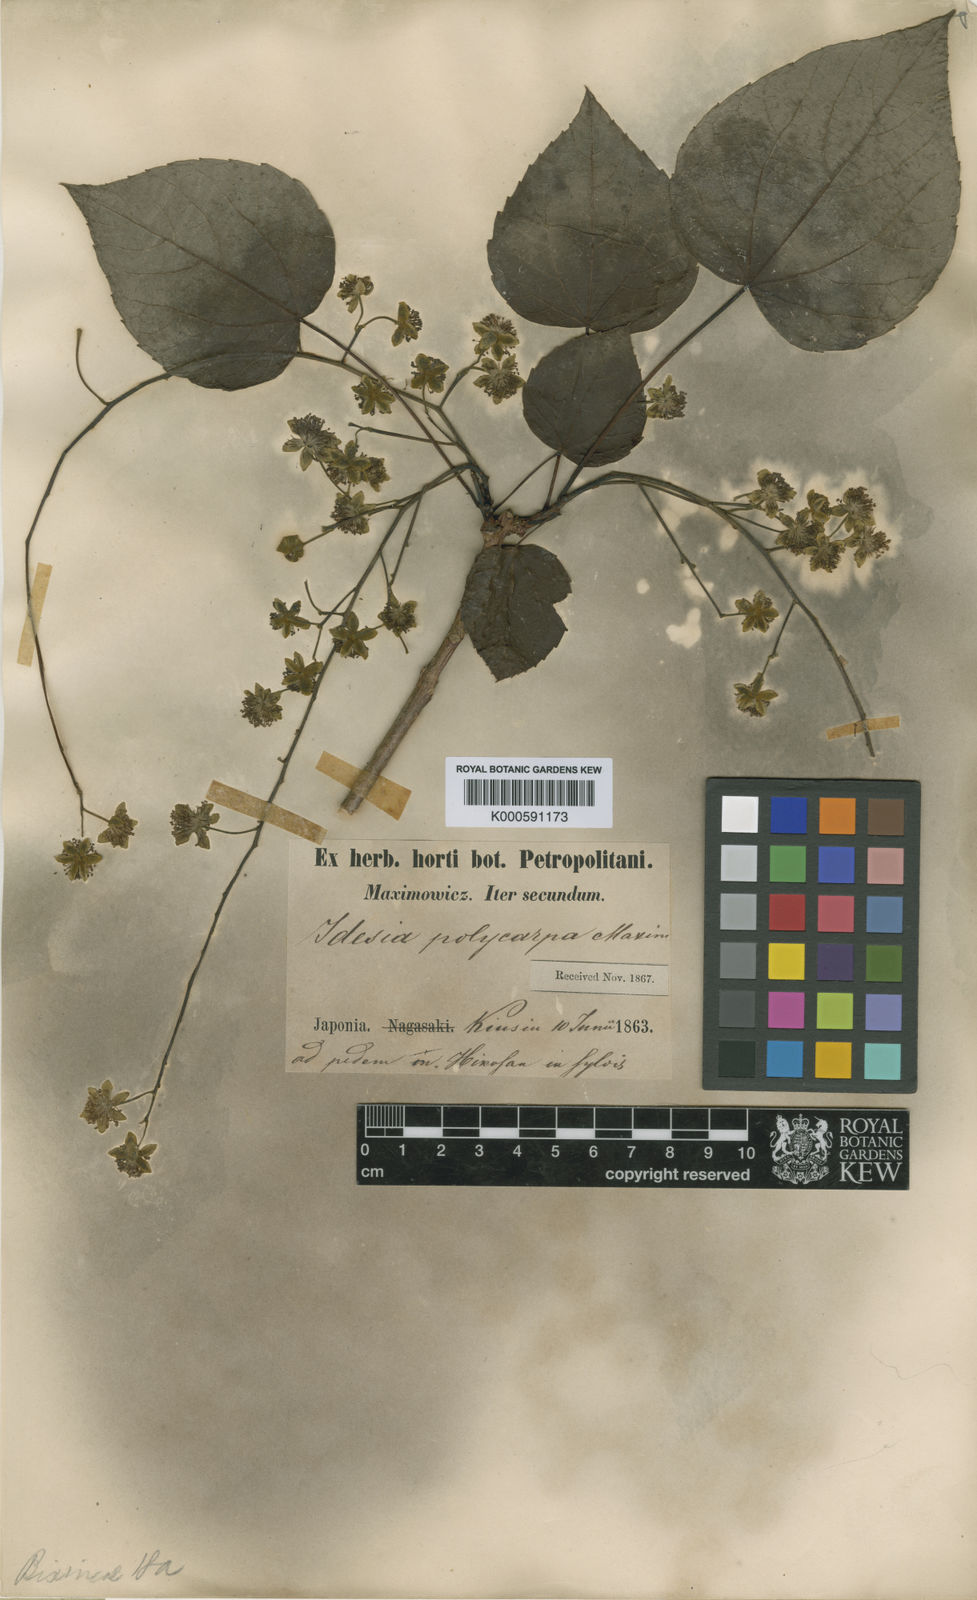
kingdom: Plantae
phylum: Tracheophyta
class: Magnoliopsida
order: Malpighiales
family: Salicaceae
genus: Idesia
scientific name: Idesia polycarpa
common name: Idesia tree
